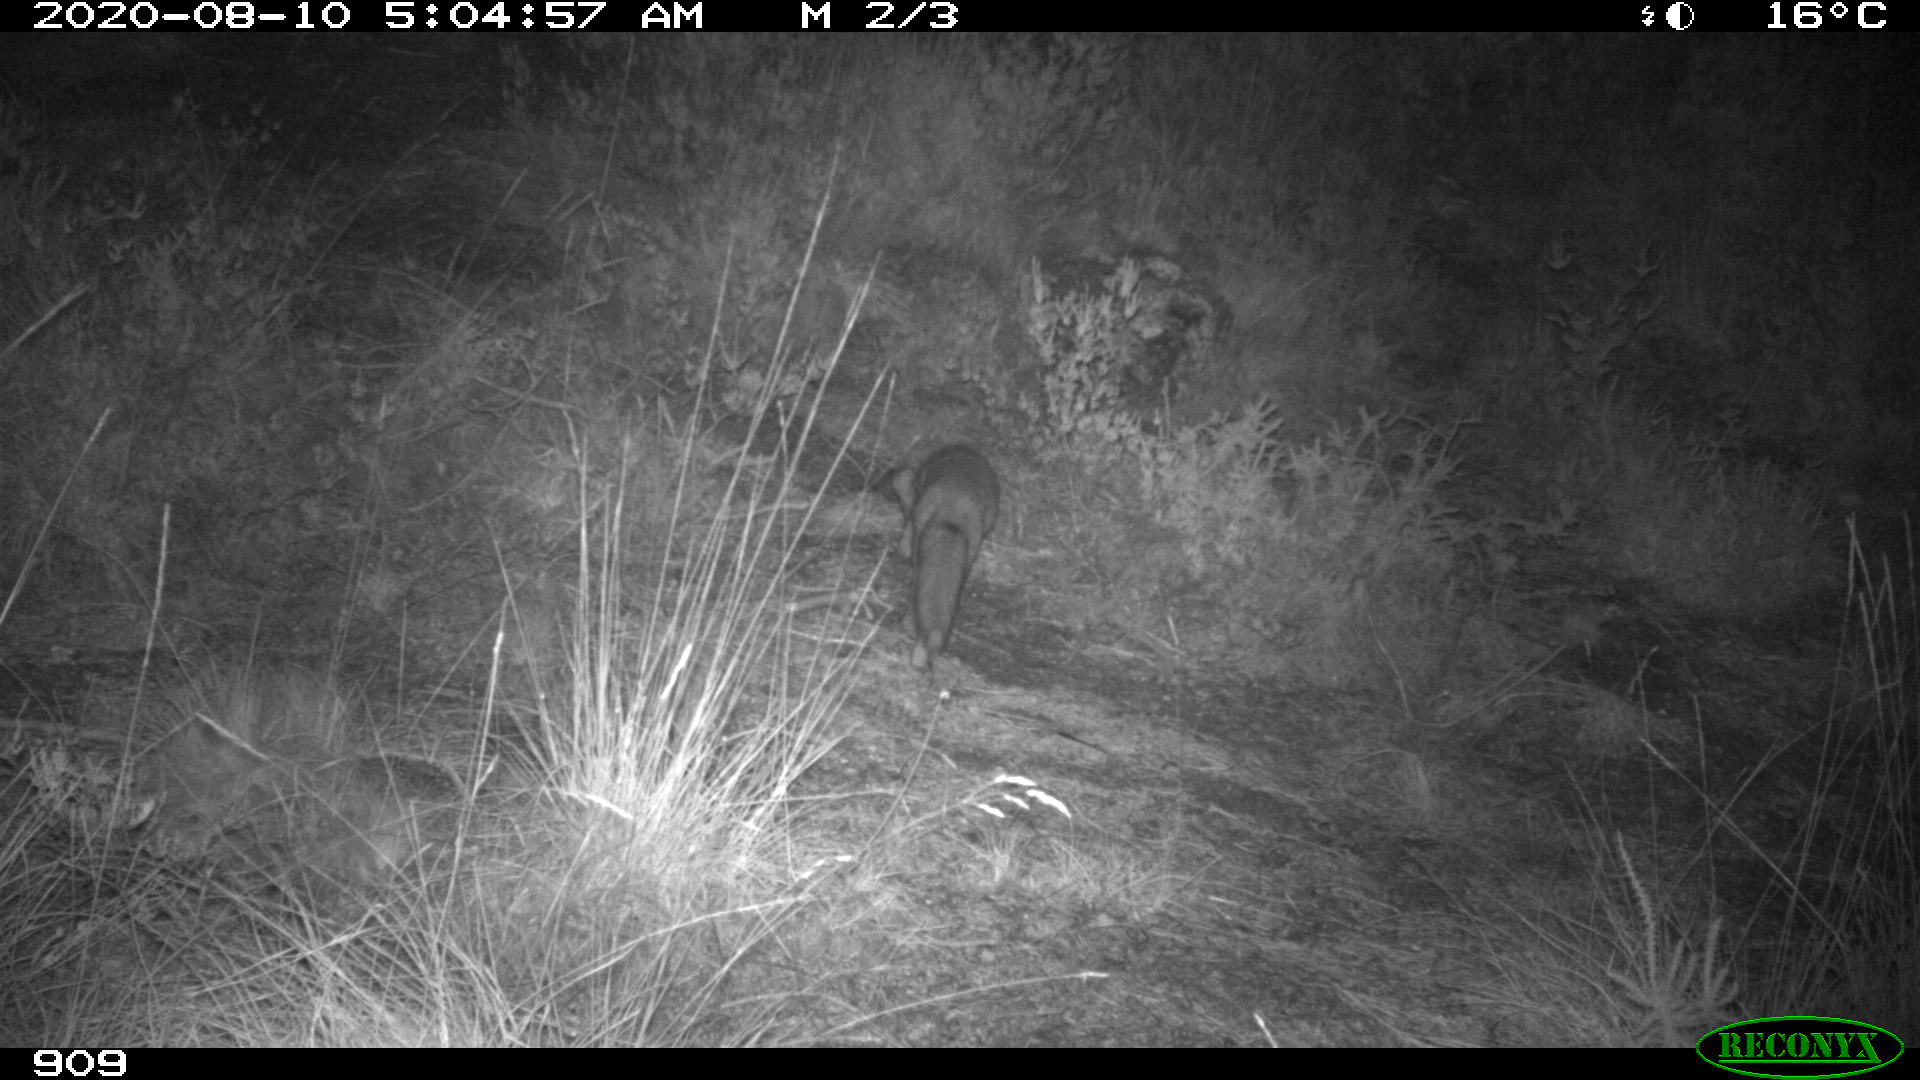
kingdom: Animalia
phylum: Chordata
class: Mammalia
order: Carnivora
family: Canidae
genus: Vulpes
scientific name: Vulpes vulpes
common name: Red fox
